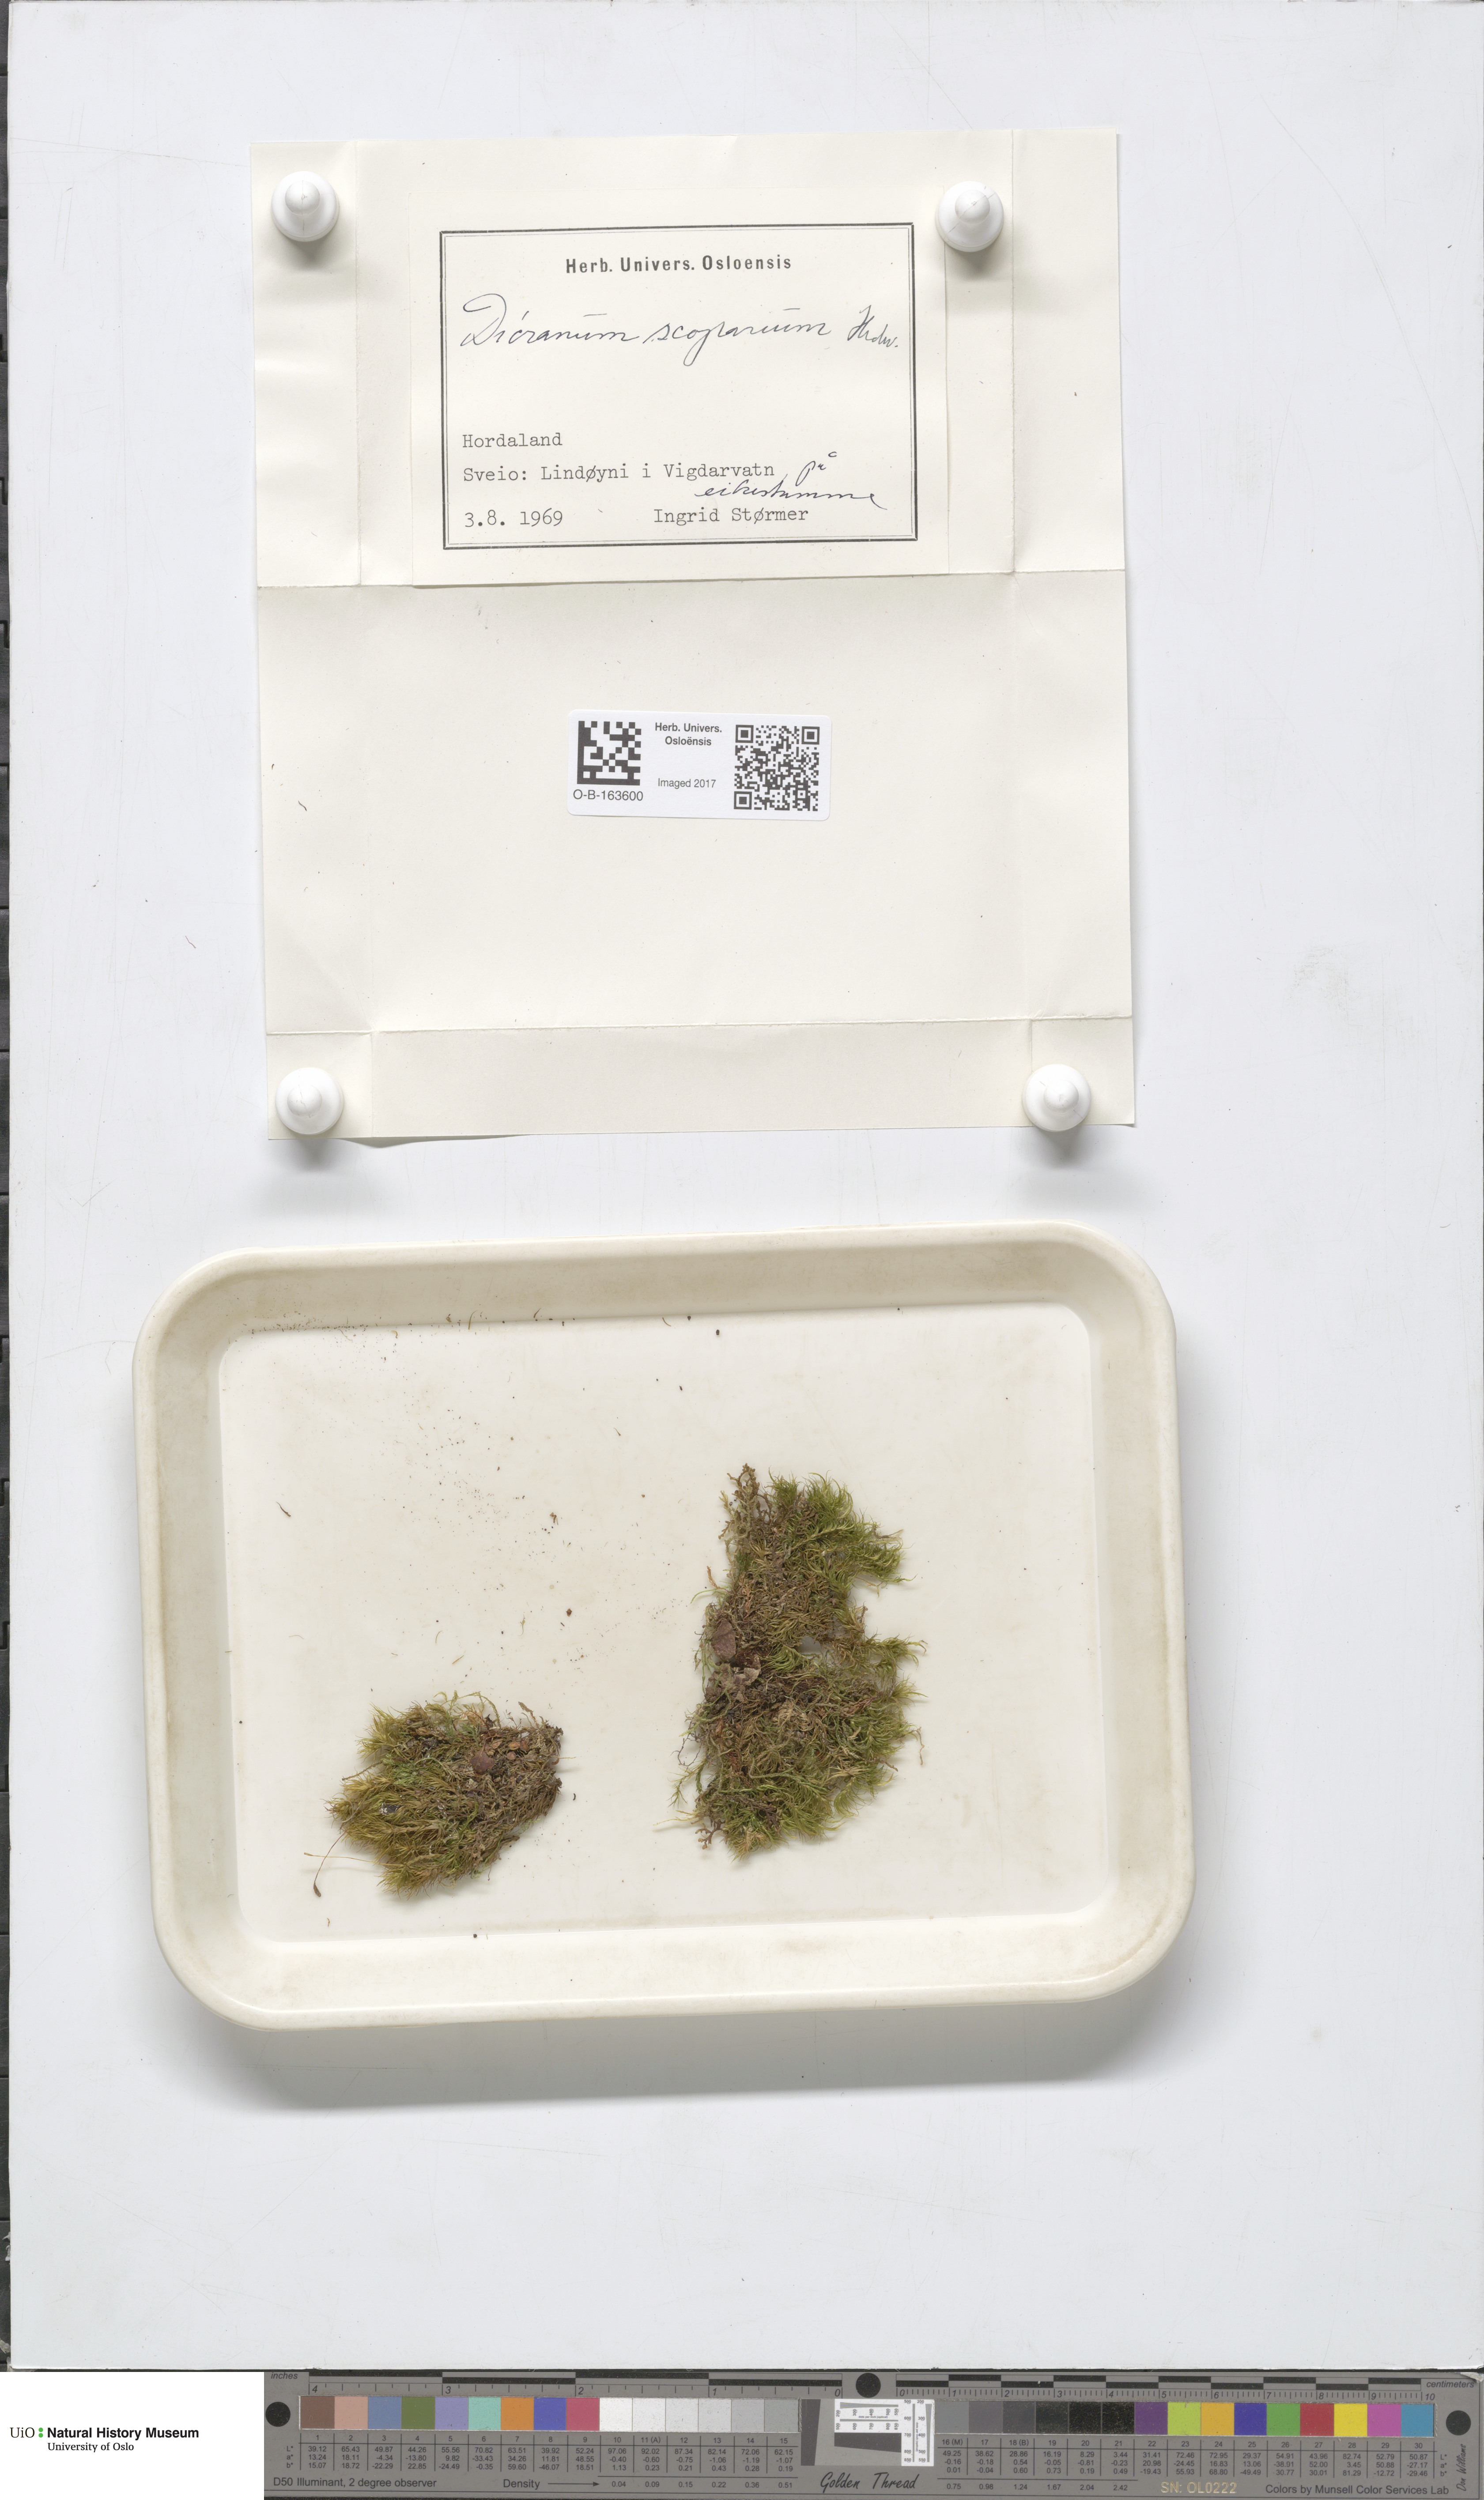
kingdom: Plantae
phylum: Bryophyta
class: Bryopsida
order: Dicranales
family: Dicranaceae
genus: Dicranum
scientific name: Dicranum scoparium
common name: Broom fork-moss
